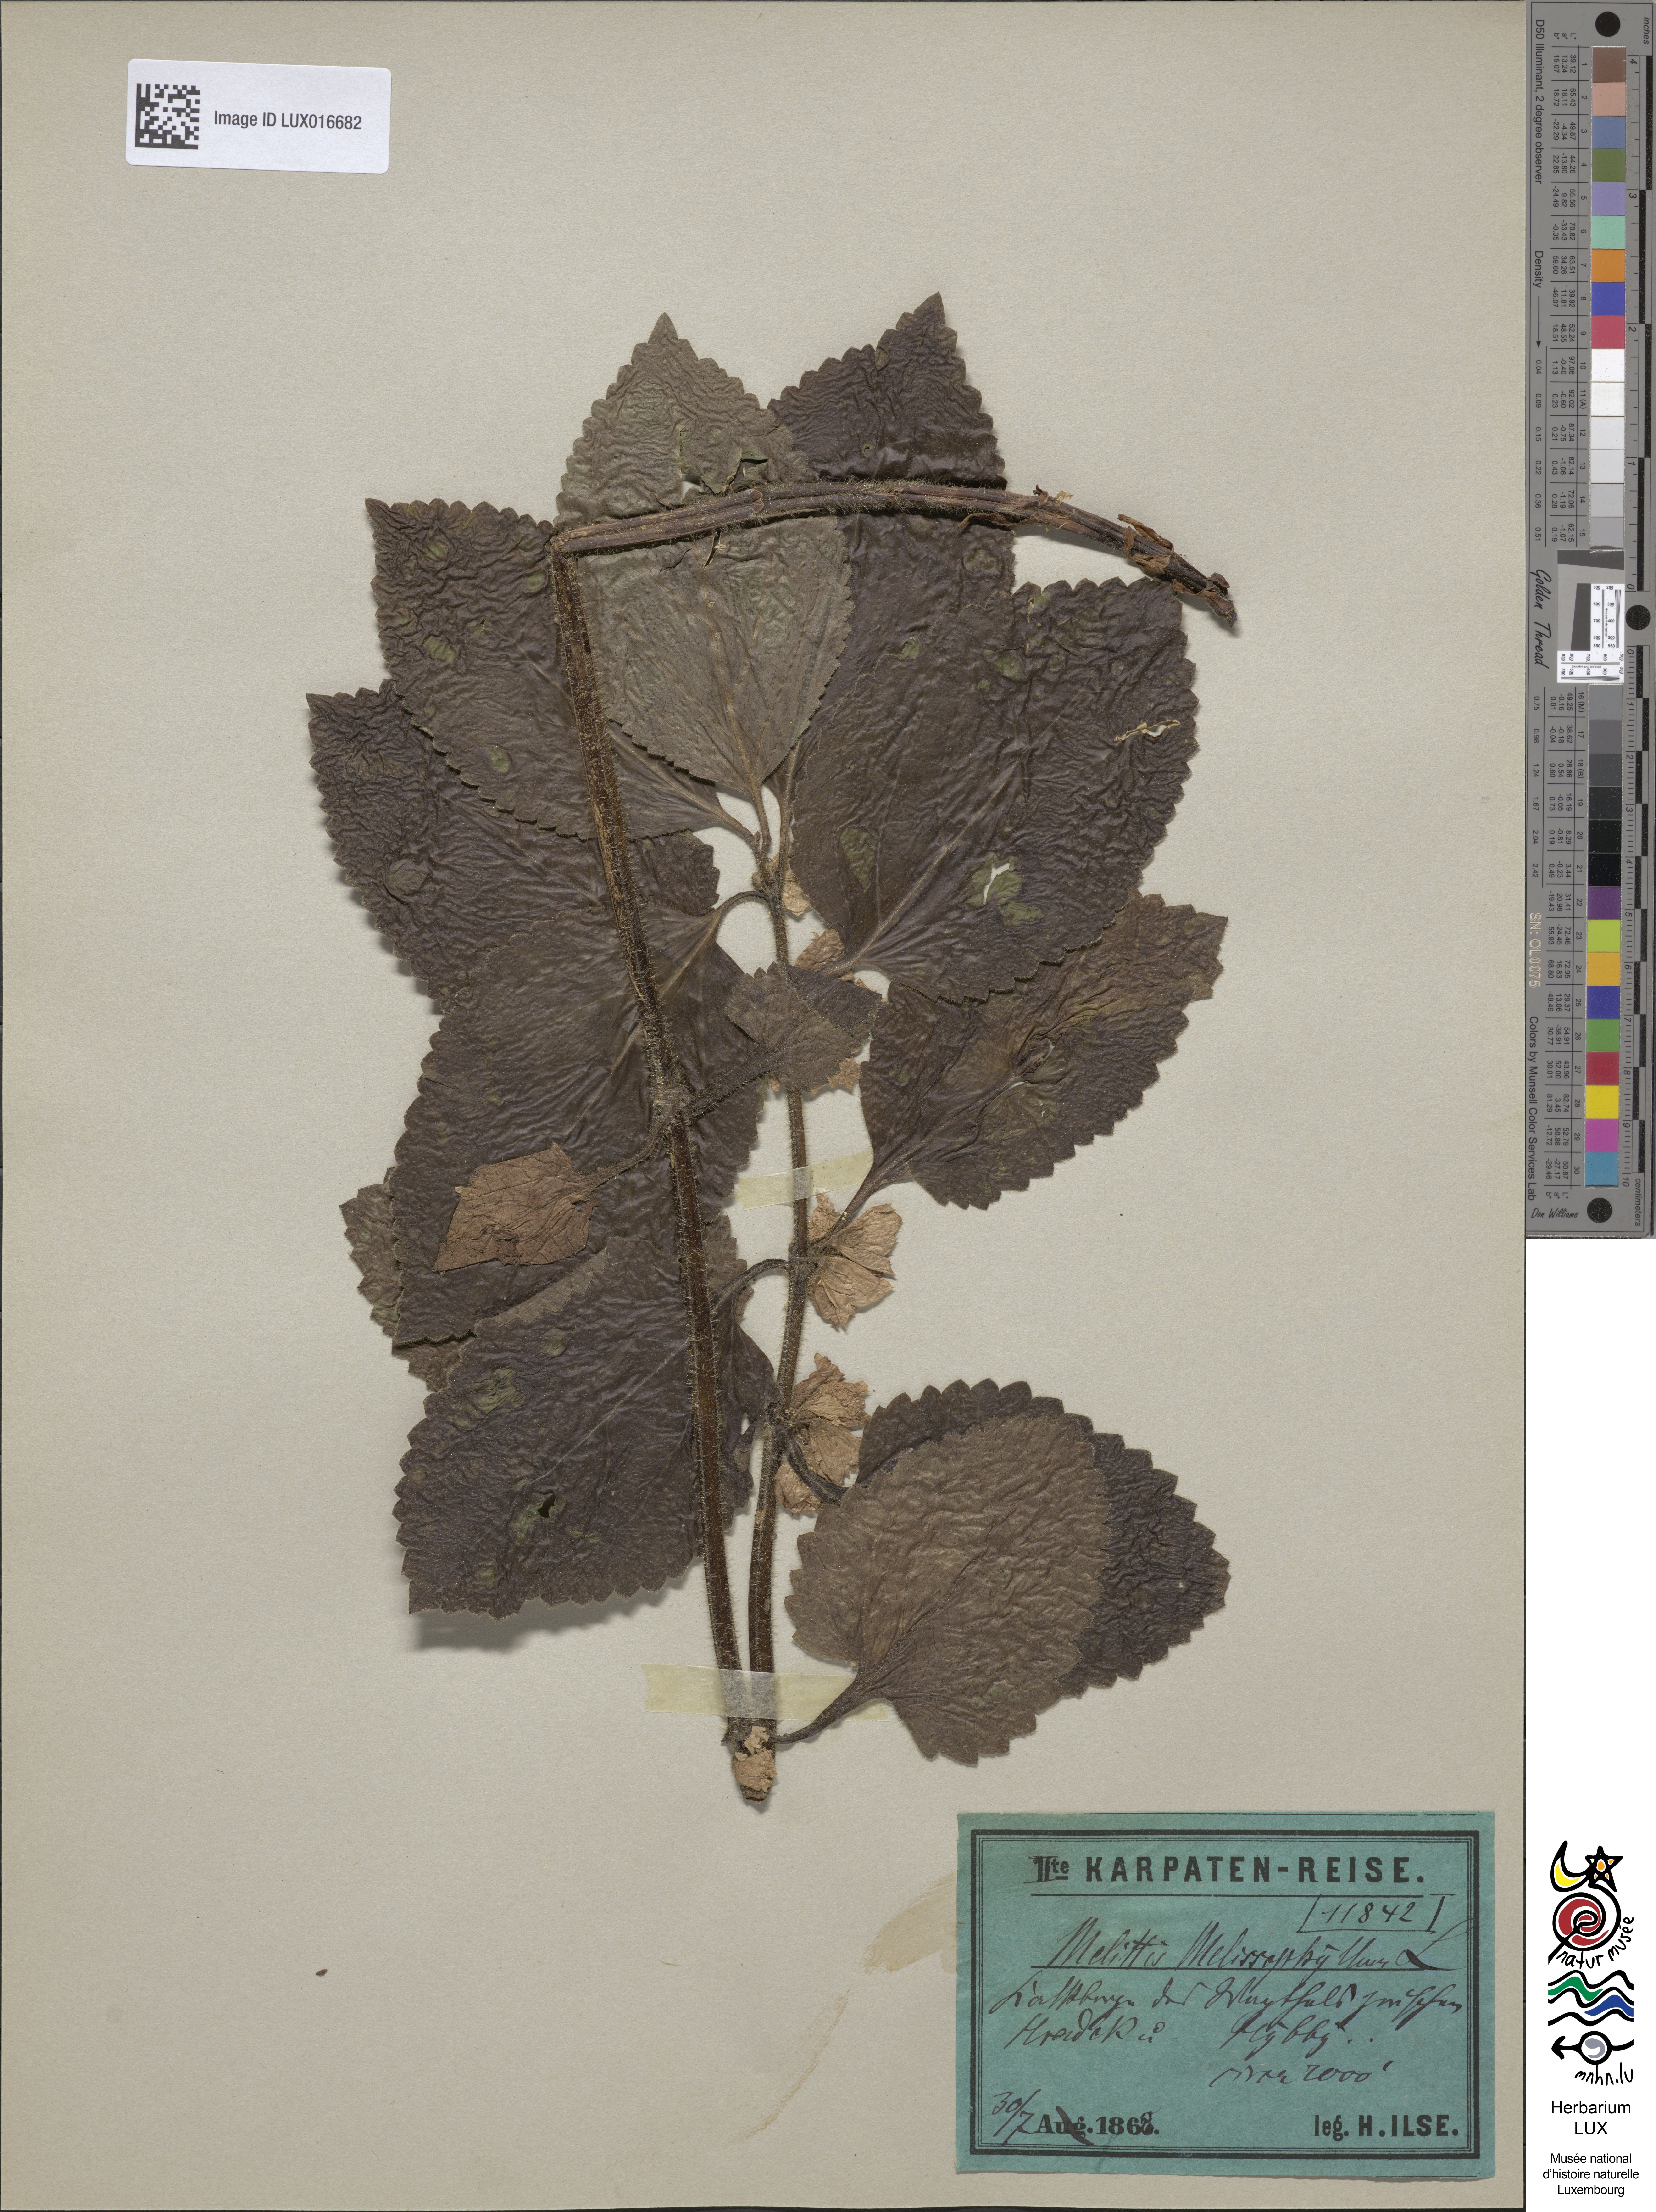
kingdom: Plantae
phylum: Tracheophyta
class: Magnoliopsida
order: Lamiales
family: Lamiaceae
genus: Melittis
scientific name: Melittis melissophyllum
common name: Bastard balm
